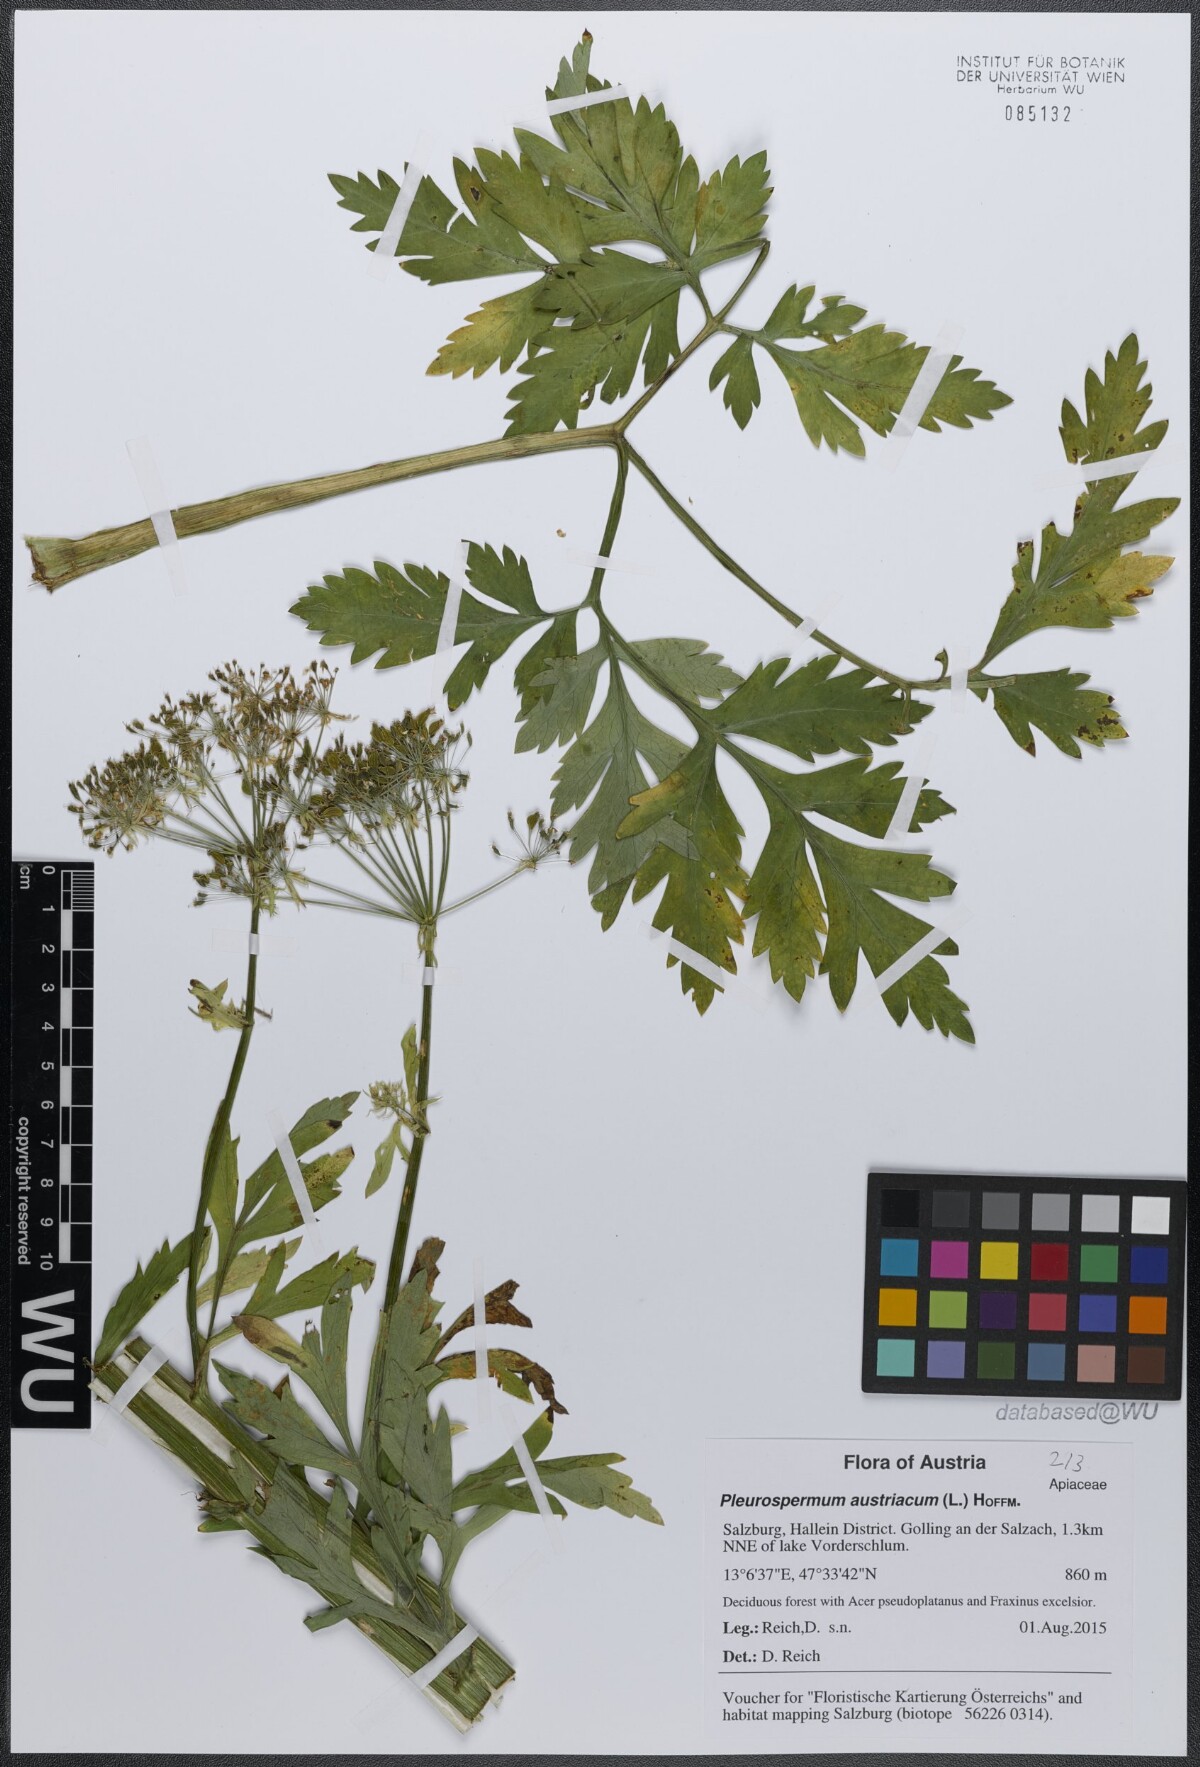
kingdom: Plantae
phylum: Tracheophyta
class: Magnoliopsida
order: Apiales
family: Apiaceae
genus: Pleurospermum
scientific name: Pleurospermum austriacum
